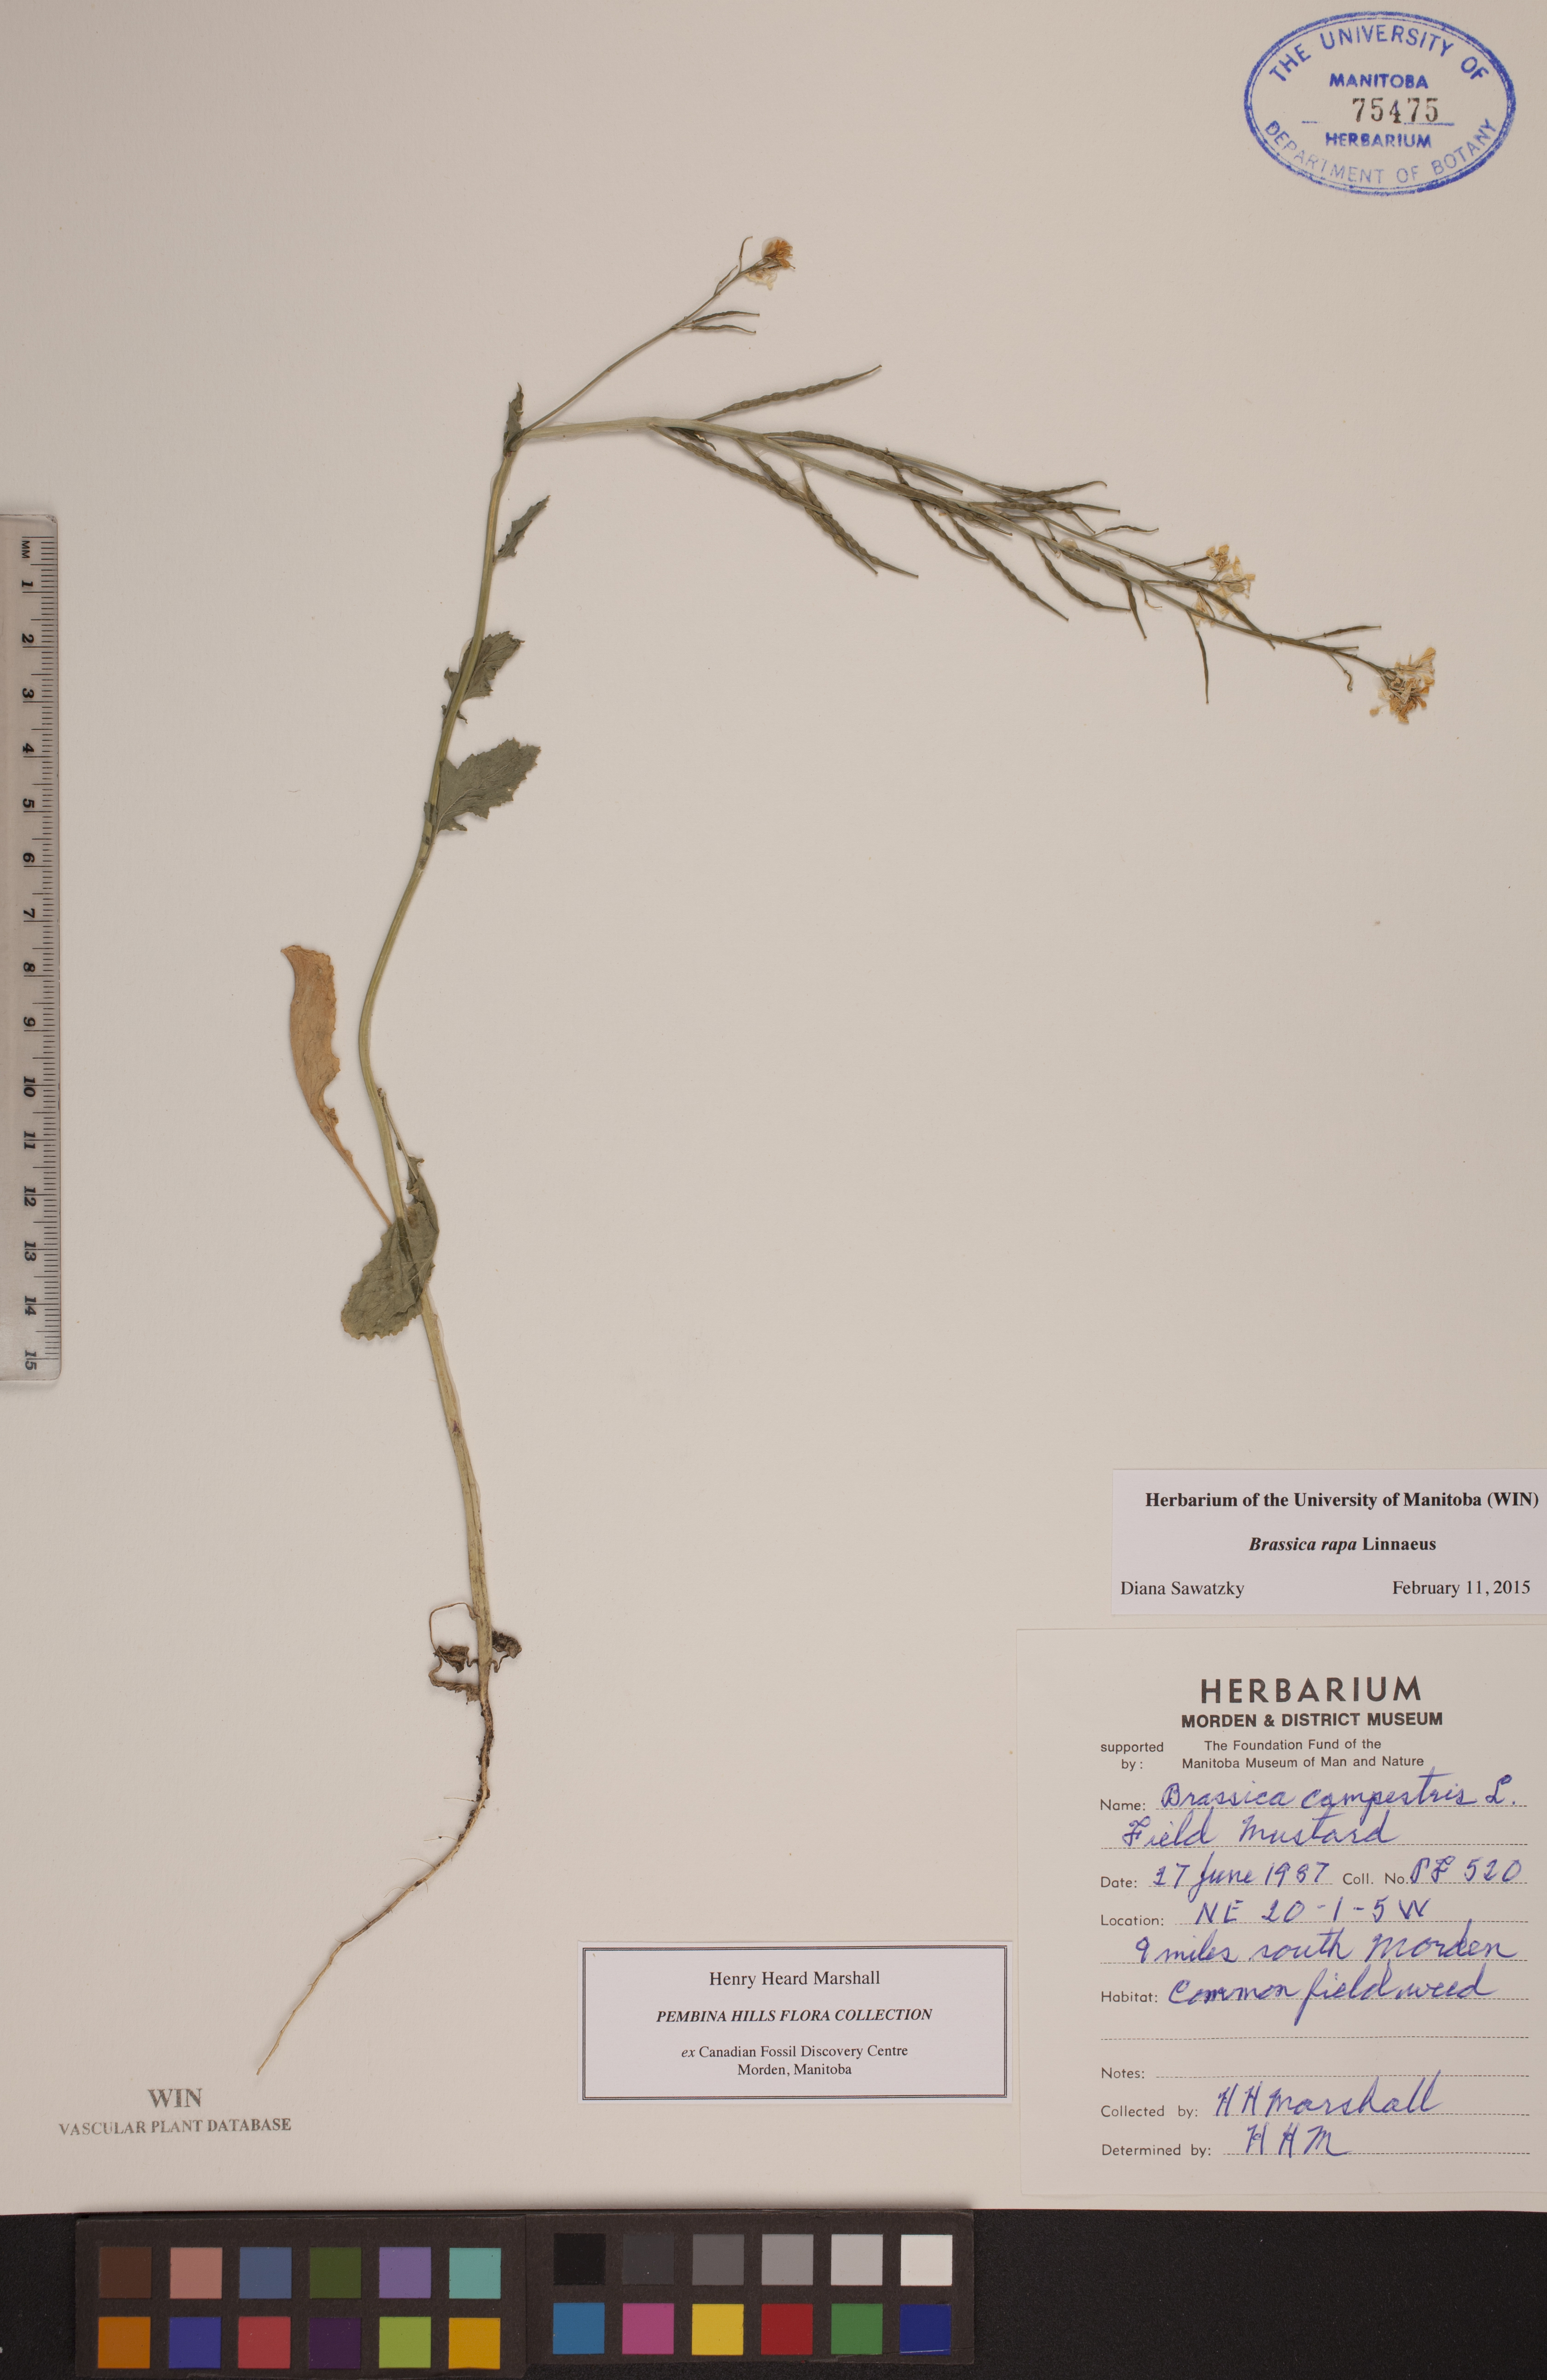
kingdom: Plantae
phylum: Tracheophyta
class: Magnoliopsida
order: Brassicales
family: Brassicaceae
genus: Brassica
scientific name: Brassica rapa
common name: Field mustard
